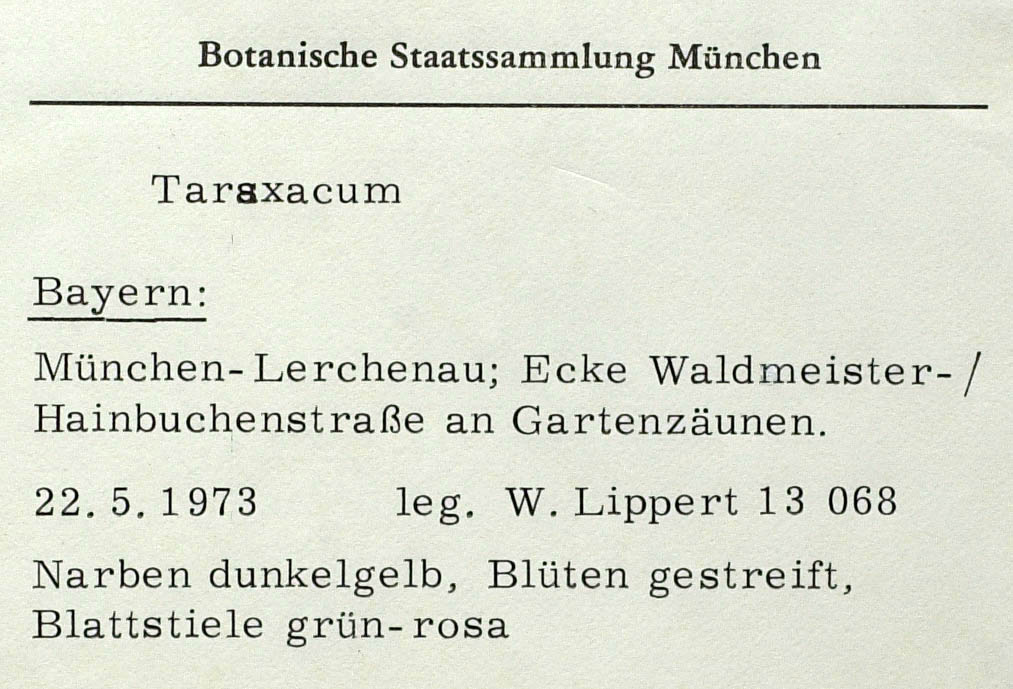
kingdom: Plantae
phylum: Tracheophyta
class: Magnoliopsida
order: Asterales
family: Asteraceae
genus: Taraxacum
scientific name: Taraxacum opulentiforme
